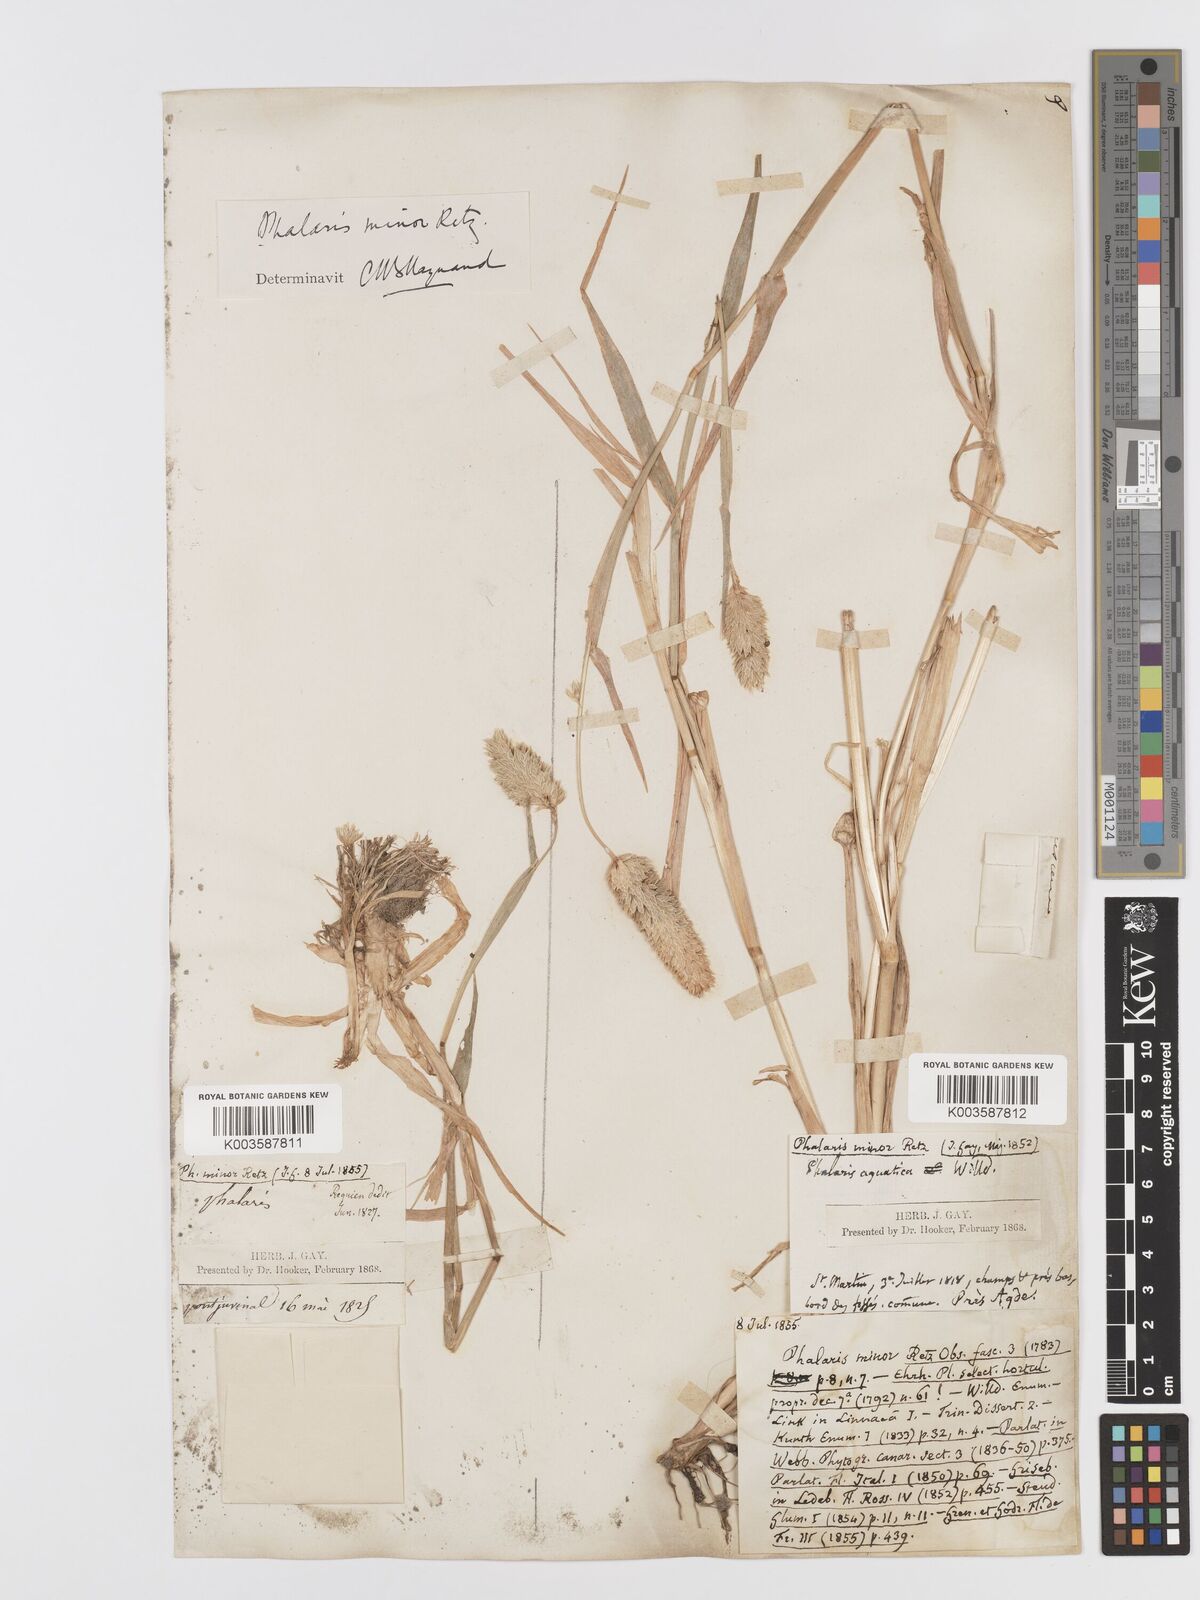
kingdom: Plantae
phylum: Tracheophyta
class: Liliopsida
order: Poales
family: Poaceae
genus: Phalaris
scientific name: Phalaris minor
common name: Littleseed canarygrass
